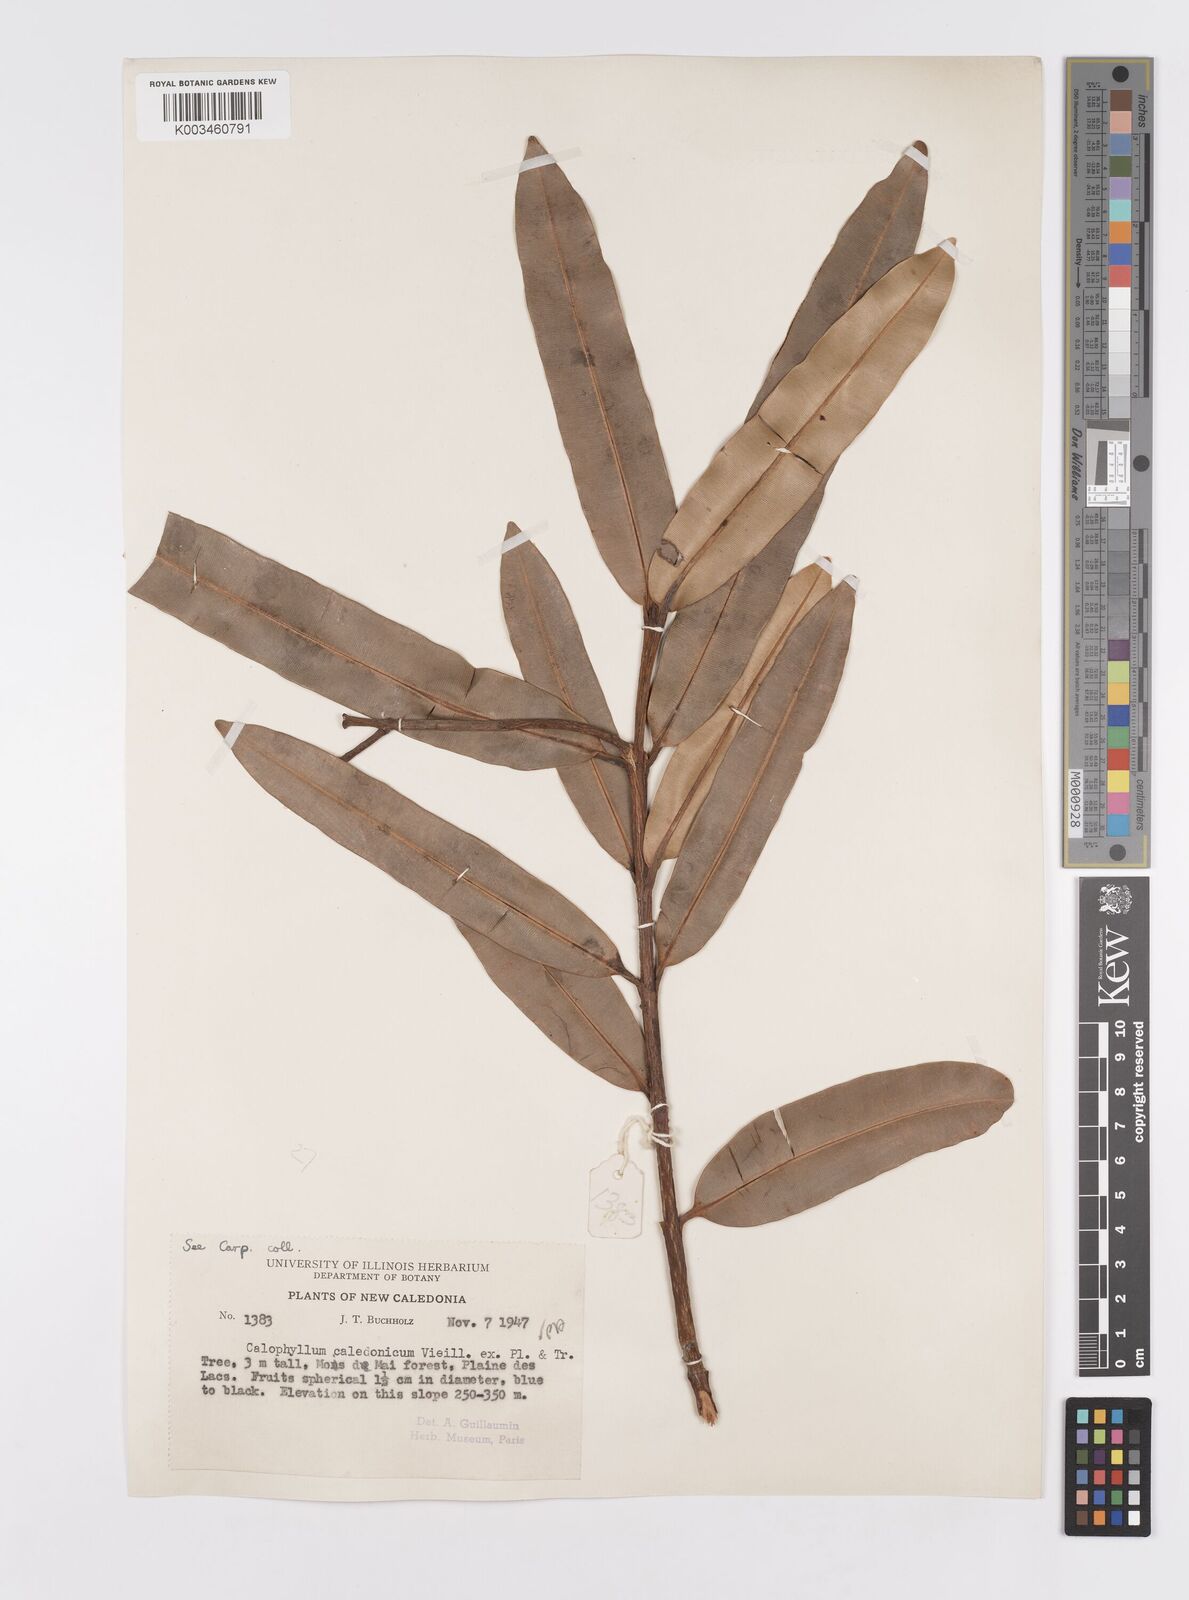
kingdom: Plantae
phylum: Tracheophyta
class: Magnoliopsida
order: Malpighiales
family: Calophyllaceae
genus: Calophyllum
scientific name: Calophyllum caledonicum
